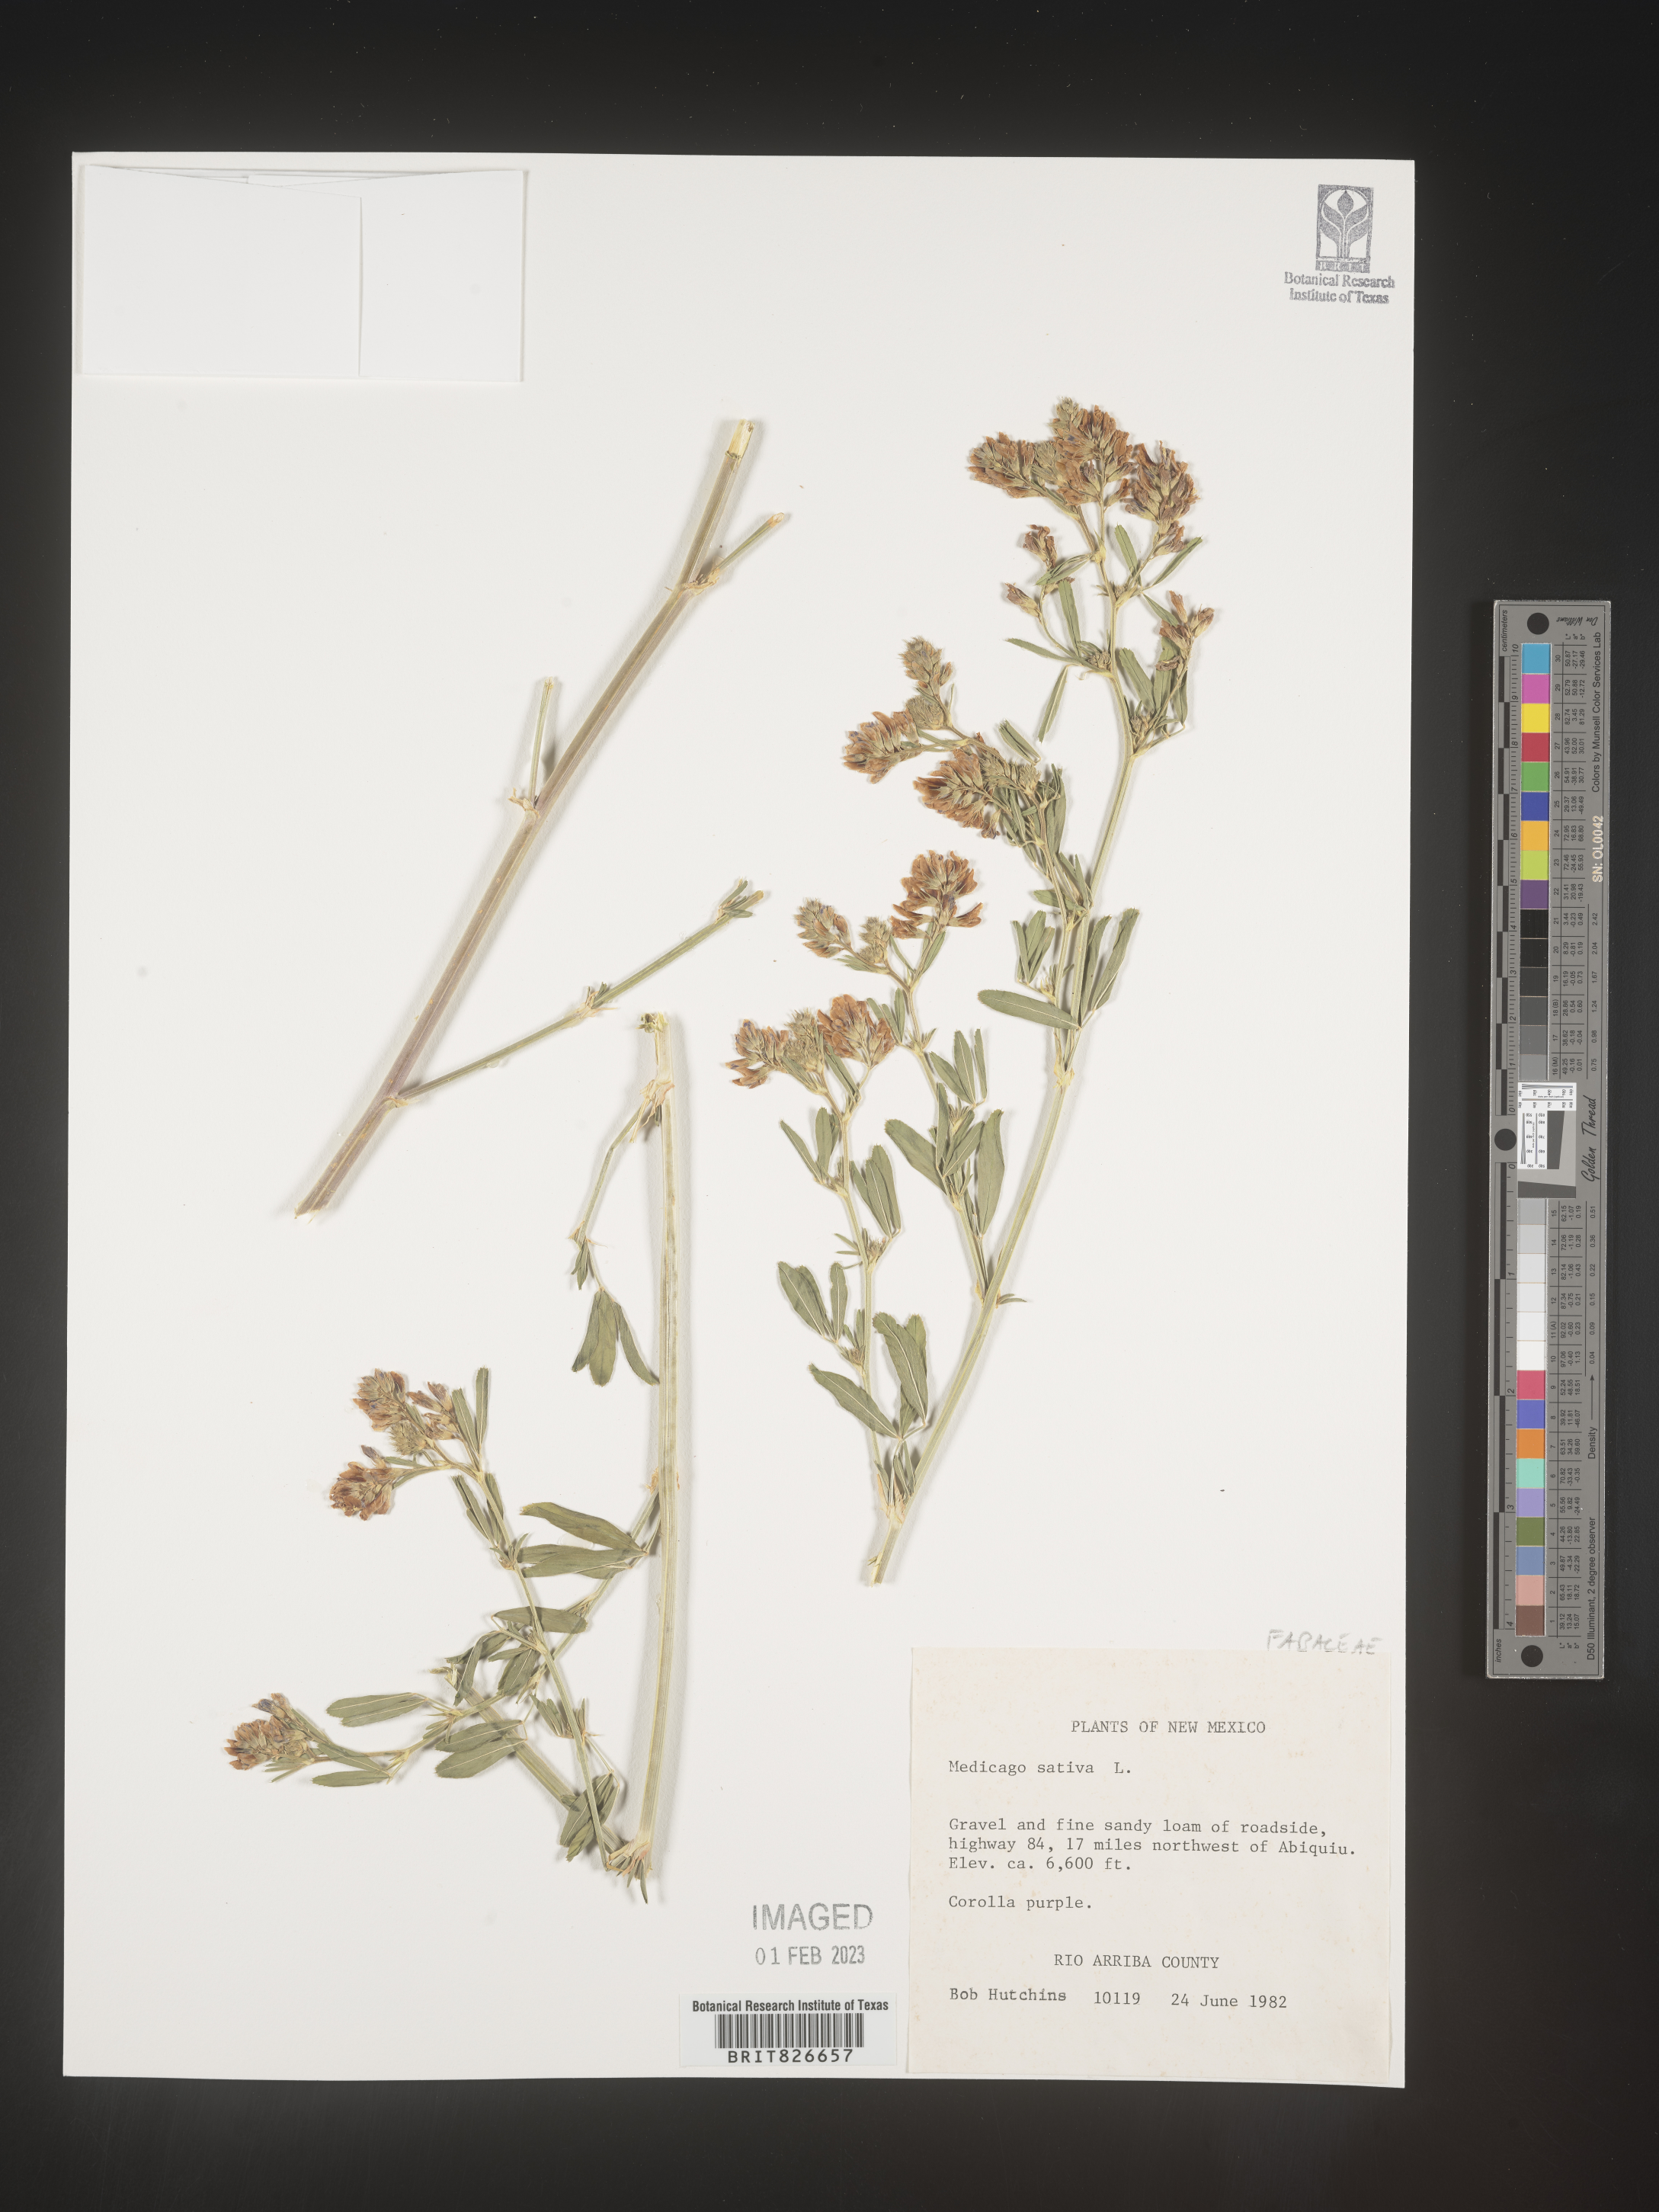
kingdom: Plantae
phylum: Tracheophyta
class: Magnoliopsida
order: Fabales
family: Fabaceae
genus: Medicago
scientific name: Medicago sativa
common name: Alfalfa
